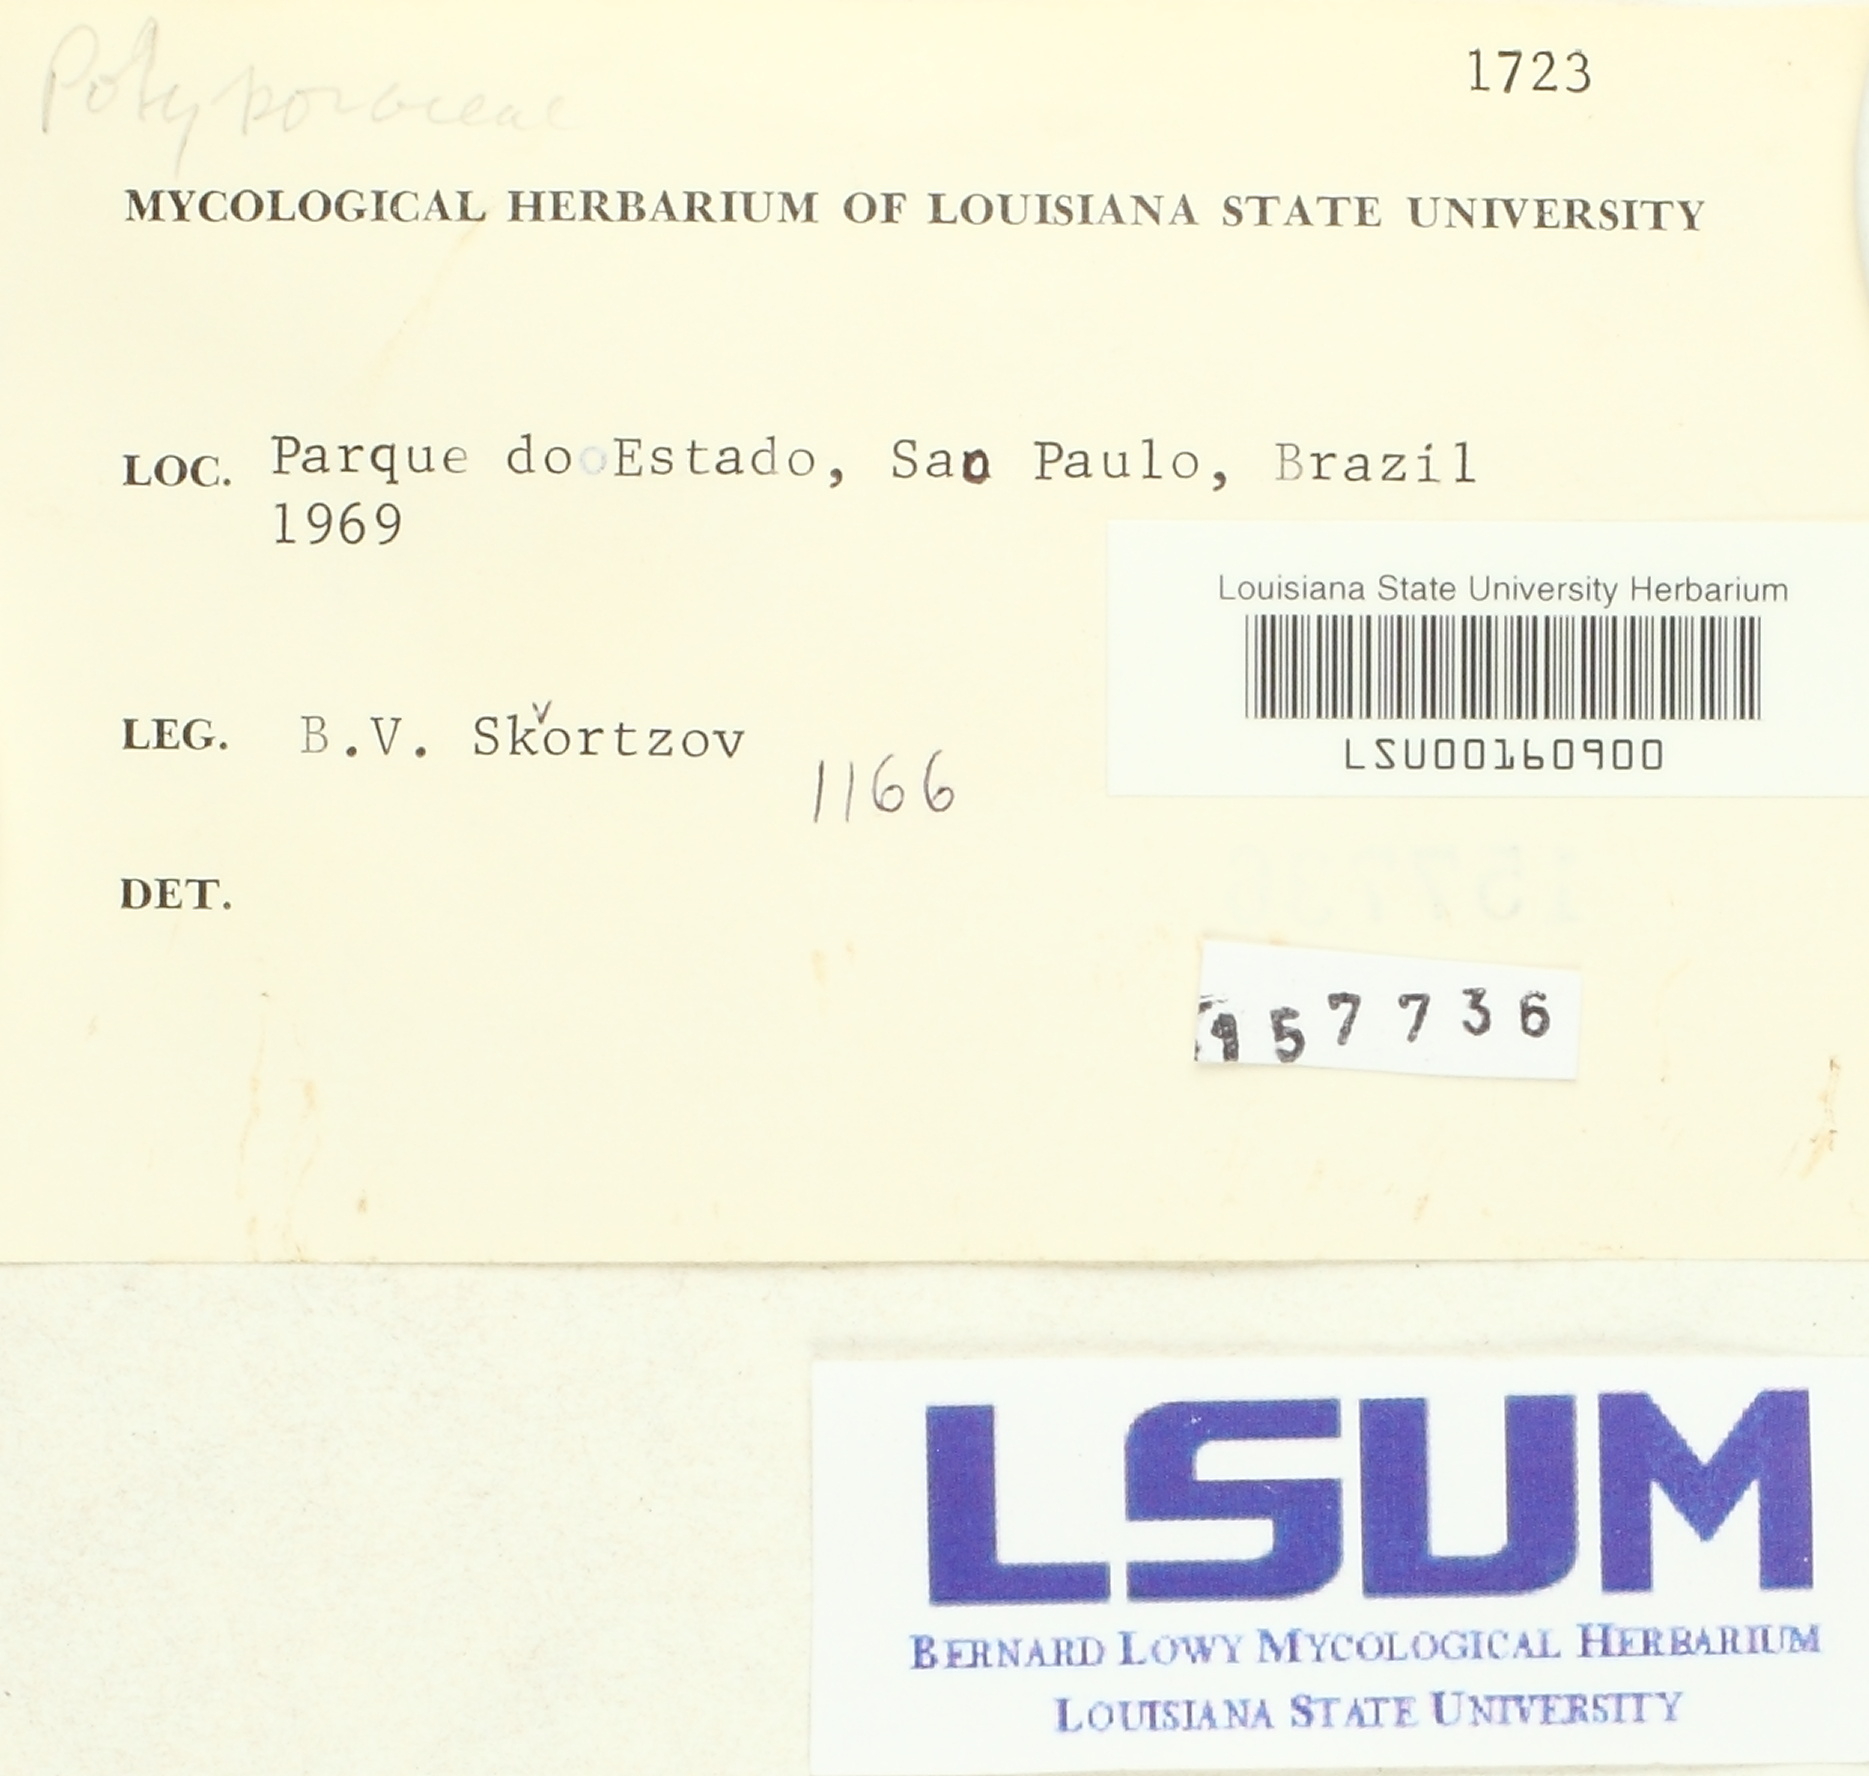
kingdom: Fungi
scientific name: Fungi
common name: Fungi
